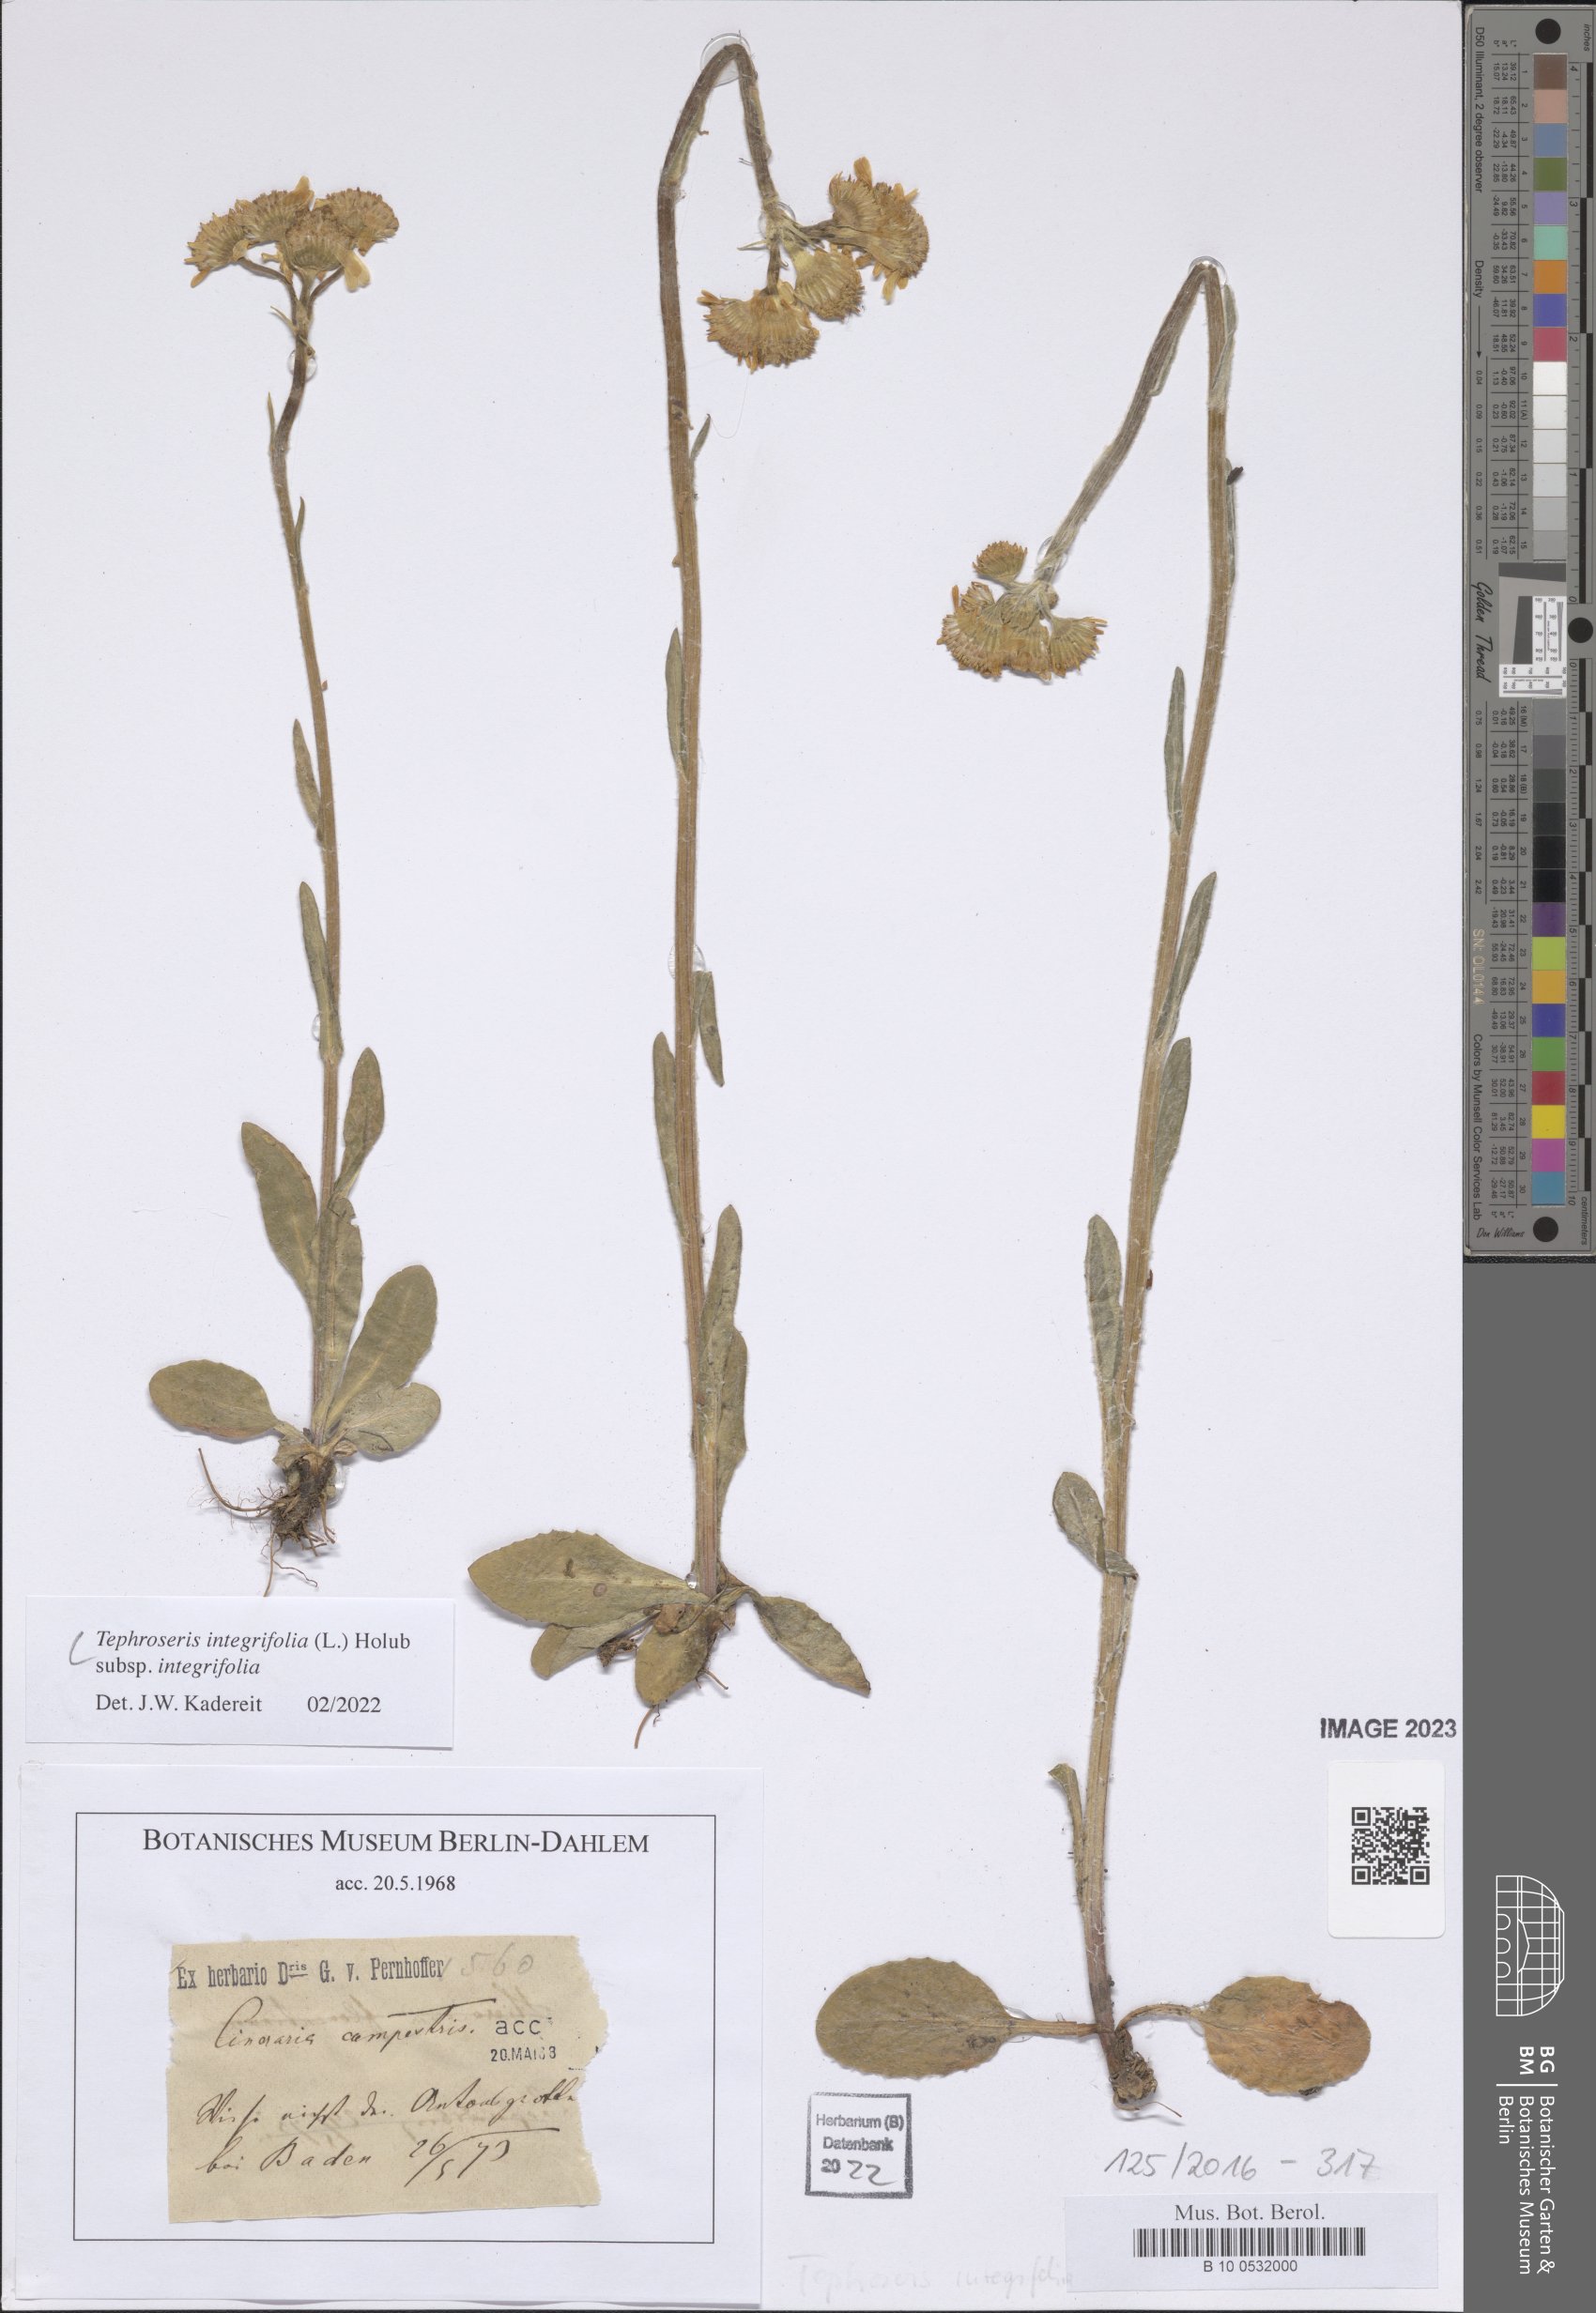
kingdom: Plantae
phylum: Tracheophyta
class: Magnoliopsida
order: Asterales
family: Asteraceae
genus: Tephroseris
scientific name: Tephroseris integrifolia
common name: Field fleawort
